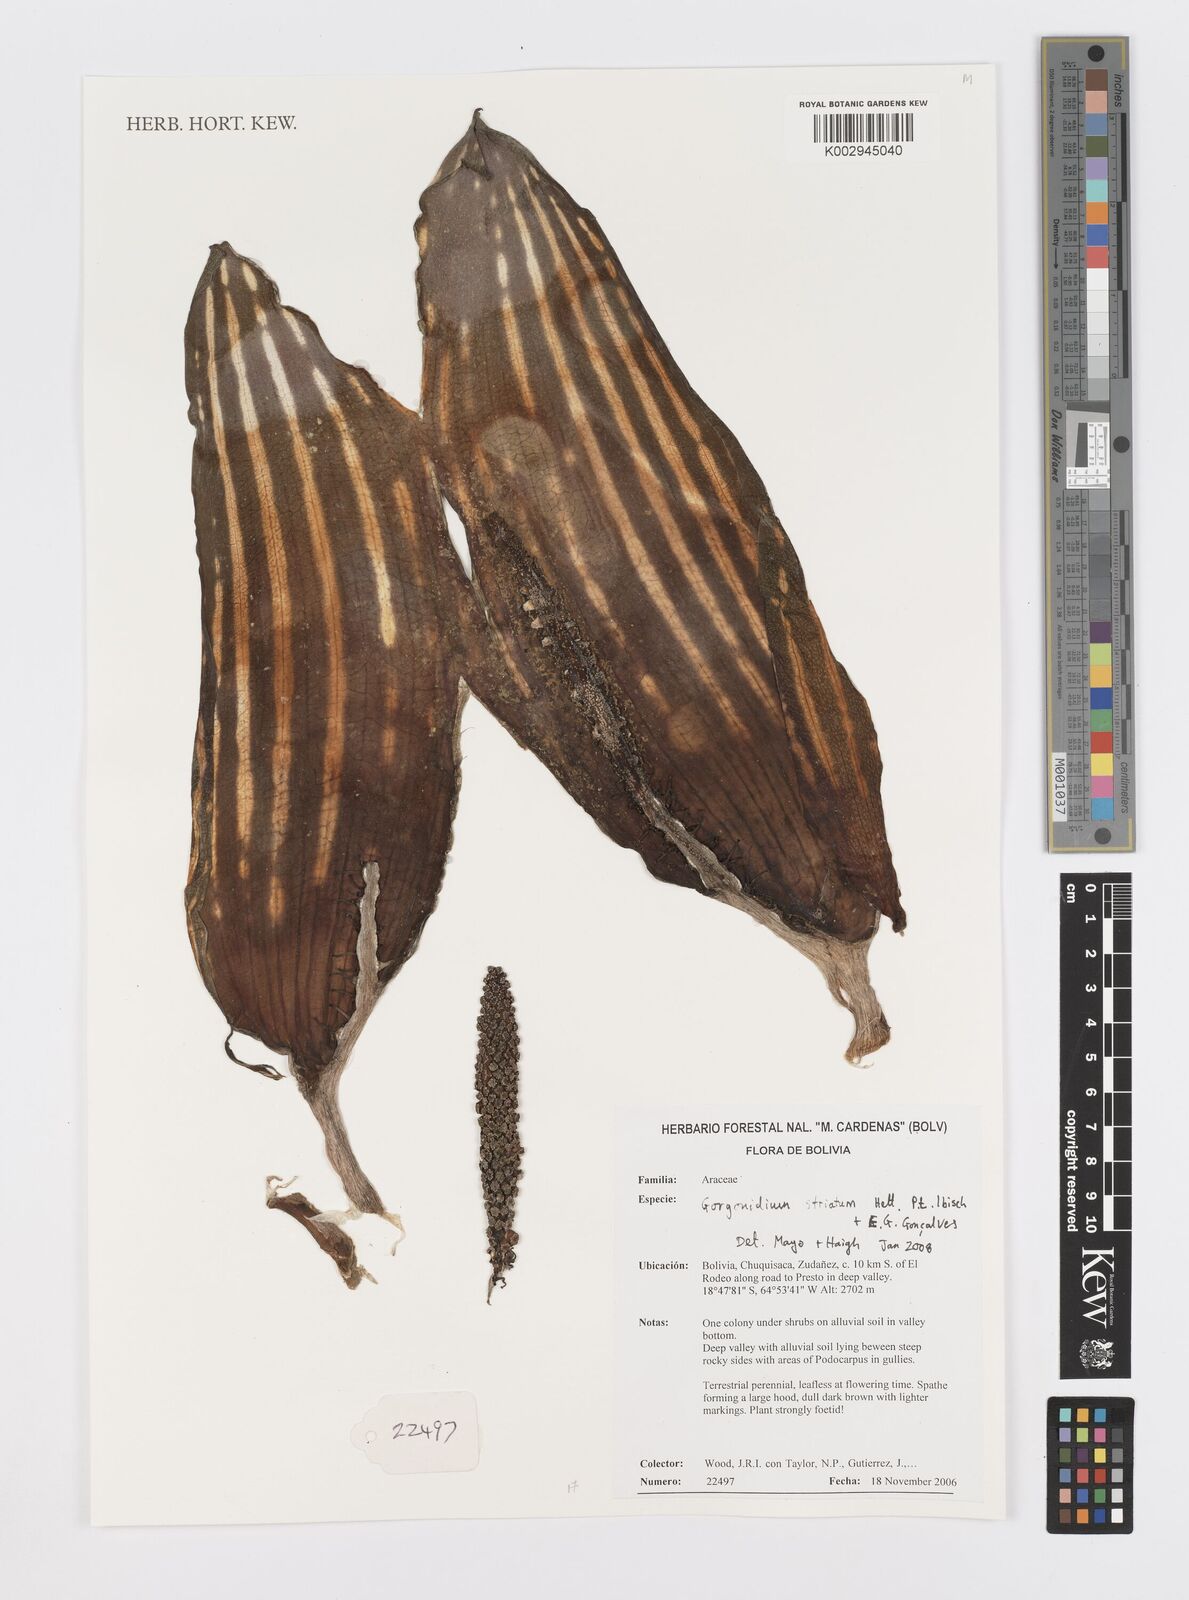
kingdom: Plantae
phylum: Tracheophyta
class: Liliopsida
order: Alismatales
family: Araceae
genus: Gorgonidium
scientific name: Gorgonidium striatum
